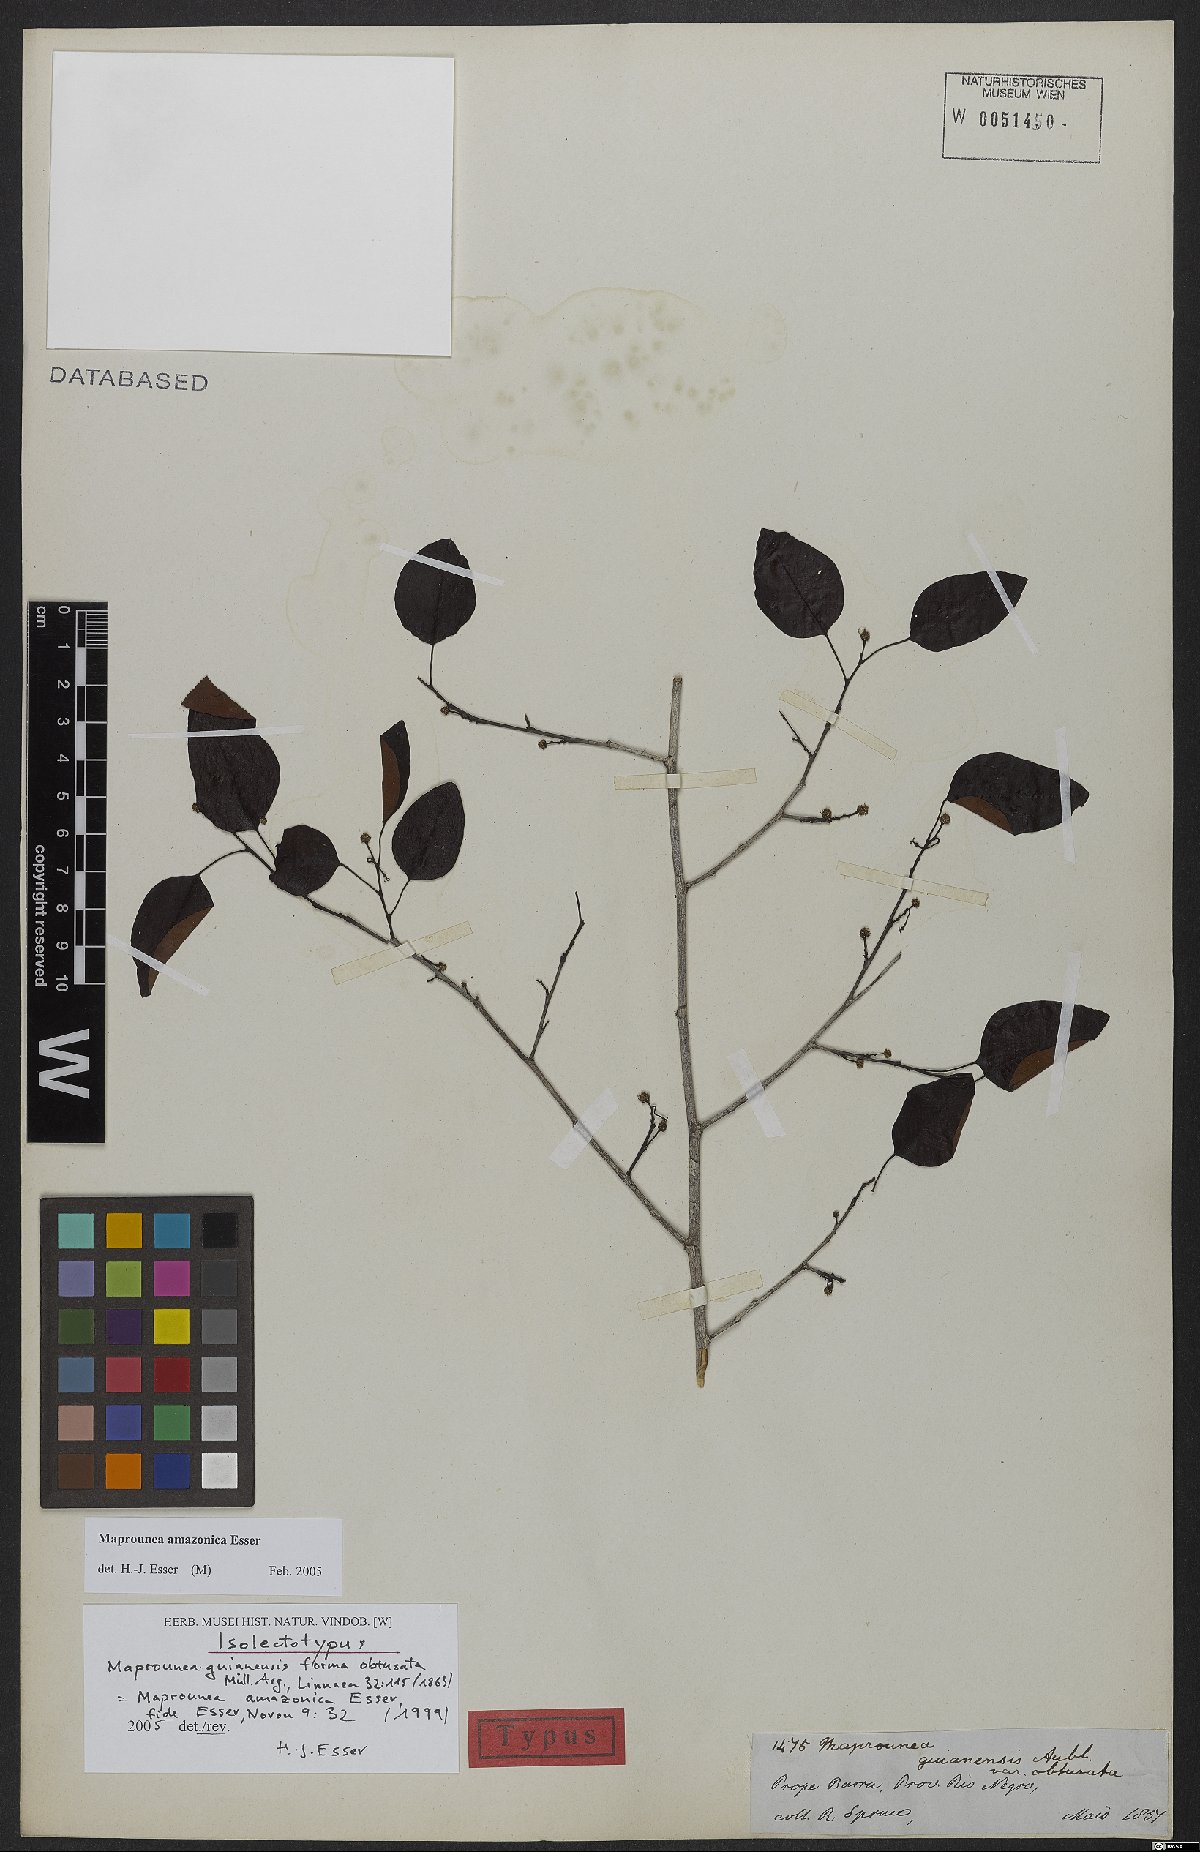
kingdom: Plantae
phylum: Tracheophyta
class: Magnoliopsida
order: Malpighiales
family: Euphorbiaceae
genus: Maprounea
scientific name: Maprounea amazonica
